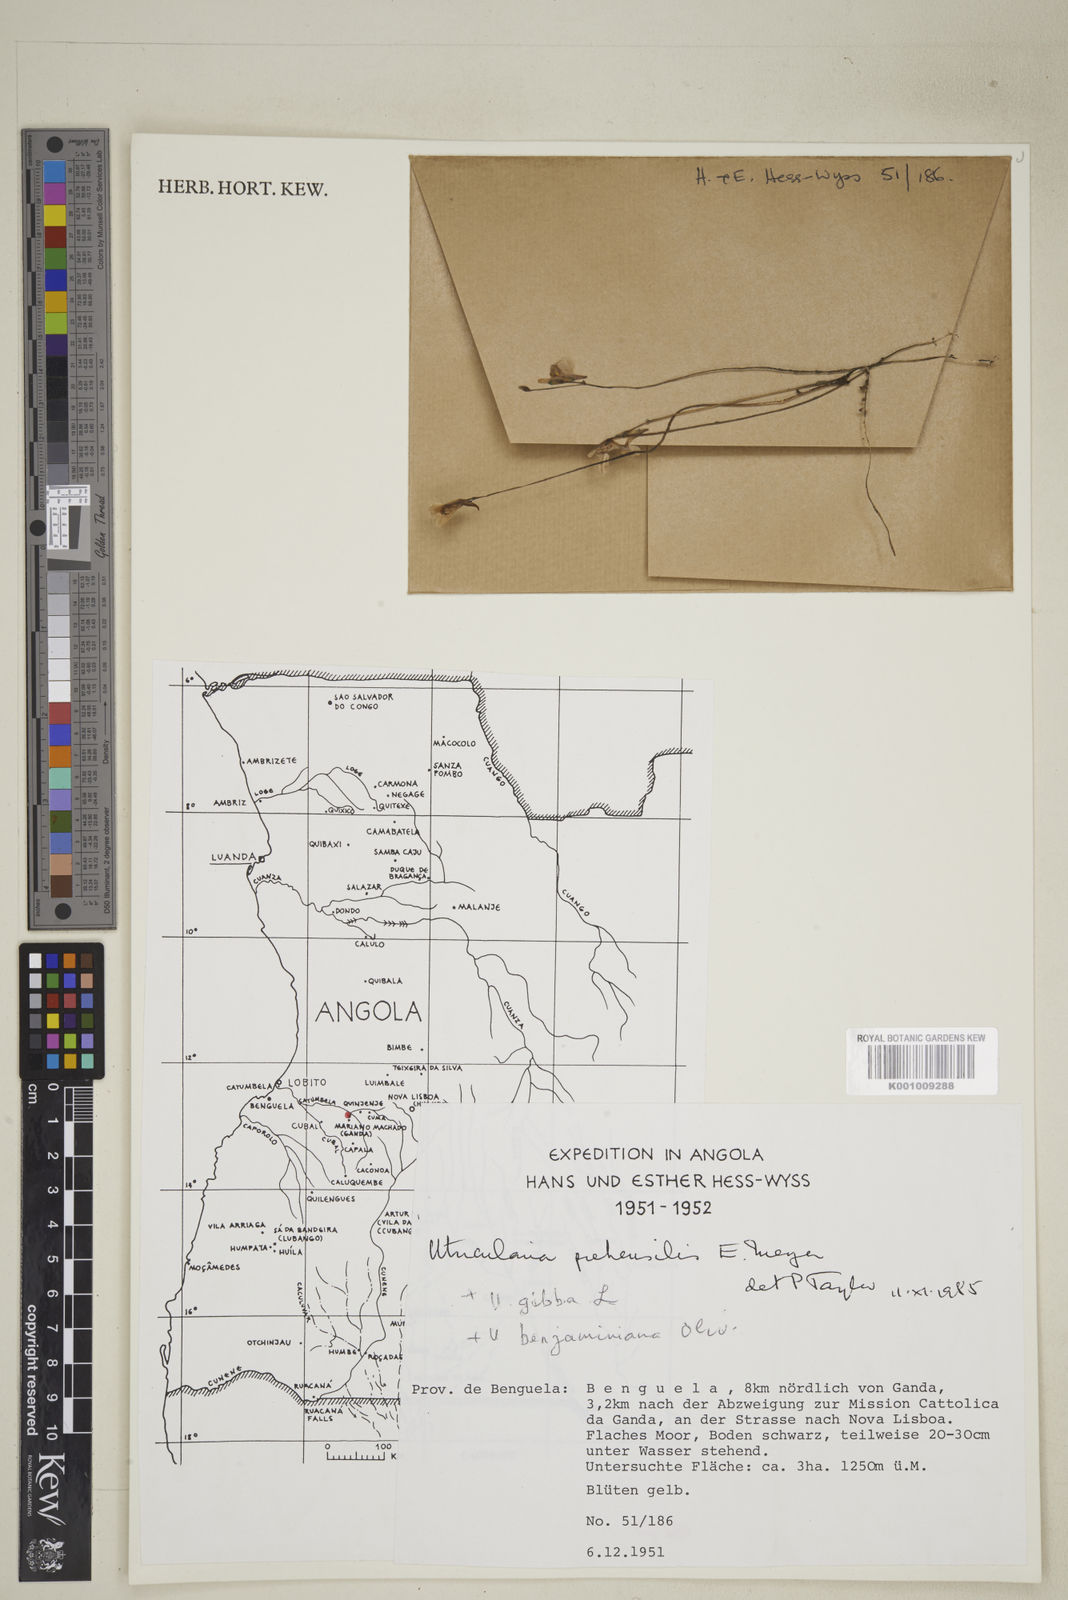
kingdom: Plantae
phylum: Tracheophyta
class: Magnoliopsida
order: Lamiales
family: Lentibulariaceae
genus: Utricularia
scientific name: Utricularia prehensilis
